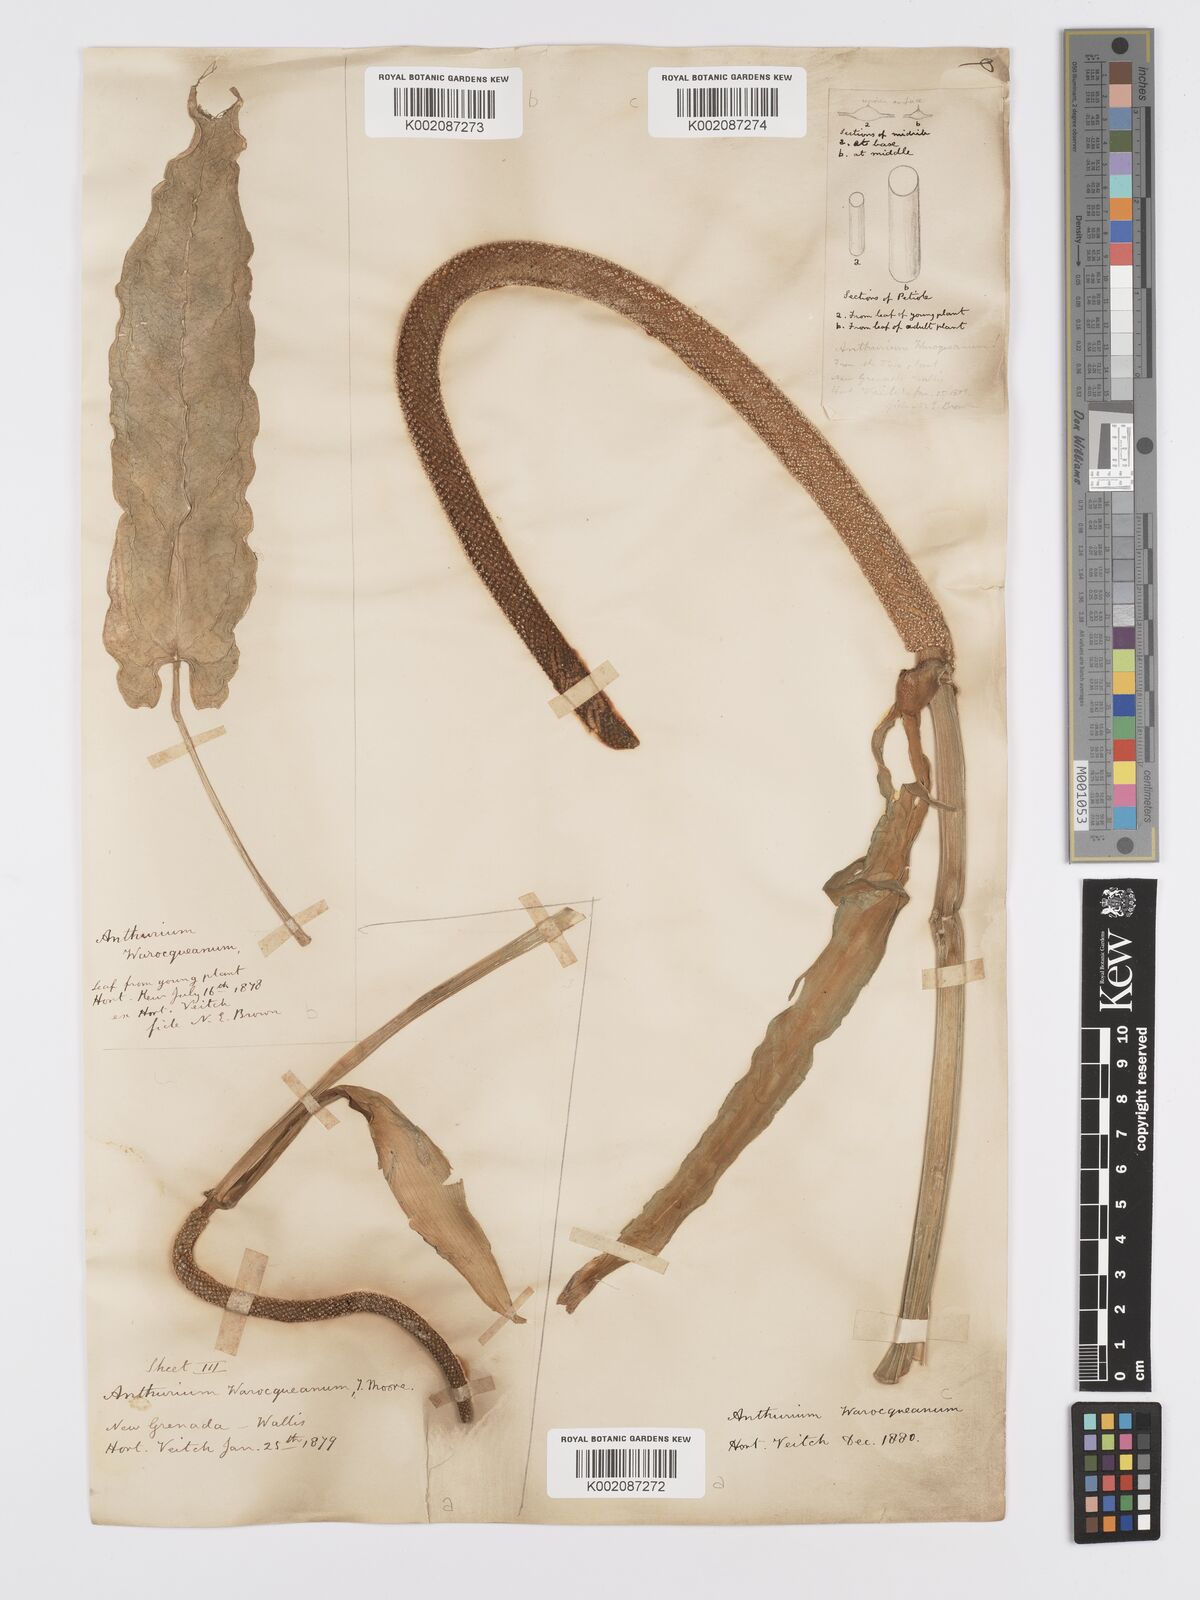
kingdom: Plantae
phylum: Tracheophyta
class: Liliopsida
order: Alismatales
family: Araceae
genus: Anthurium
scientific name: Anthurium warocqueanum
